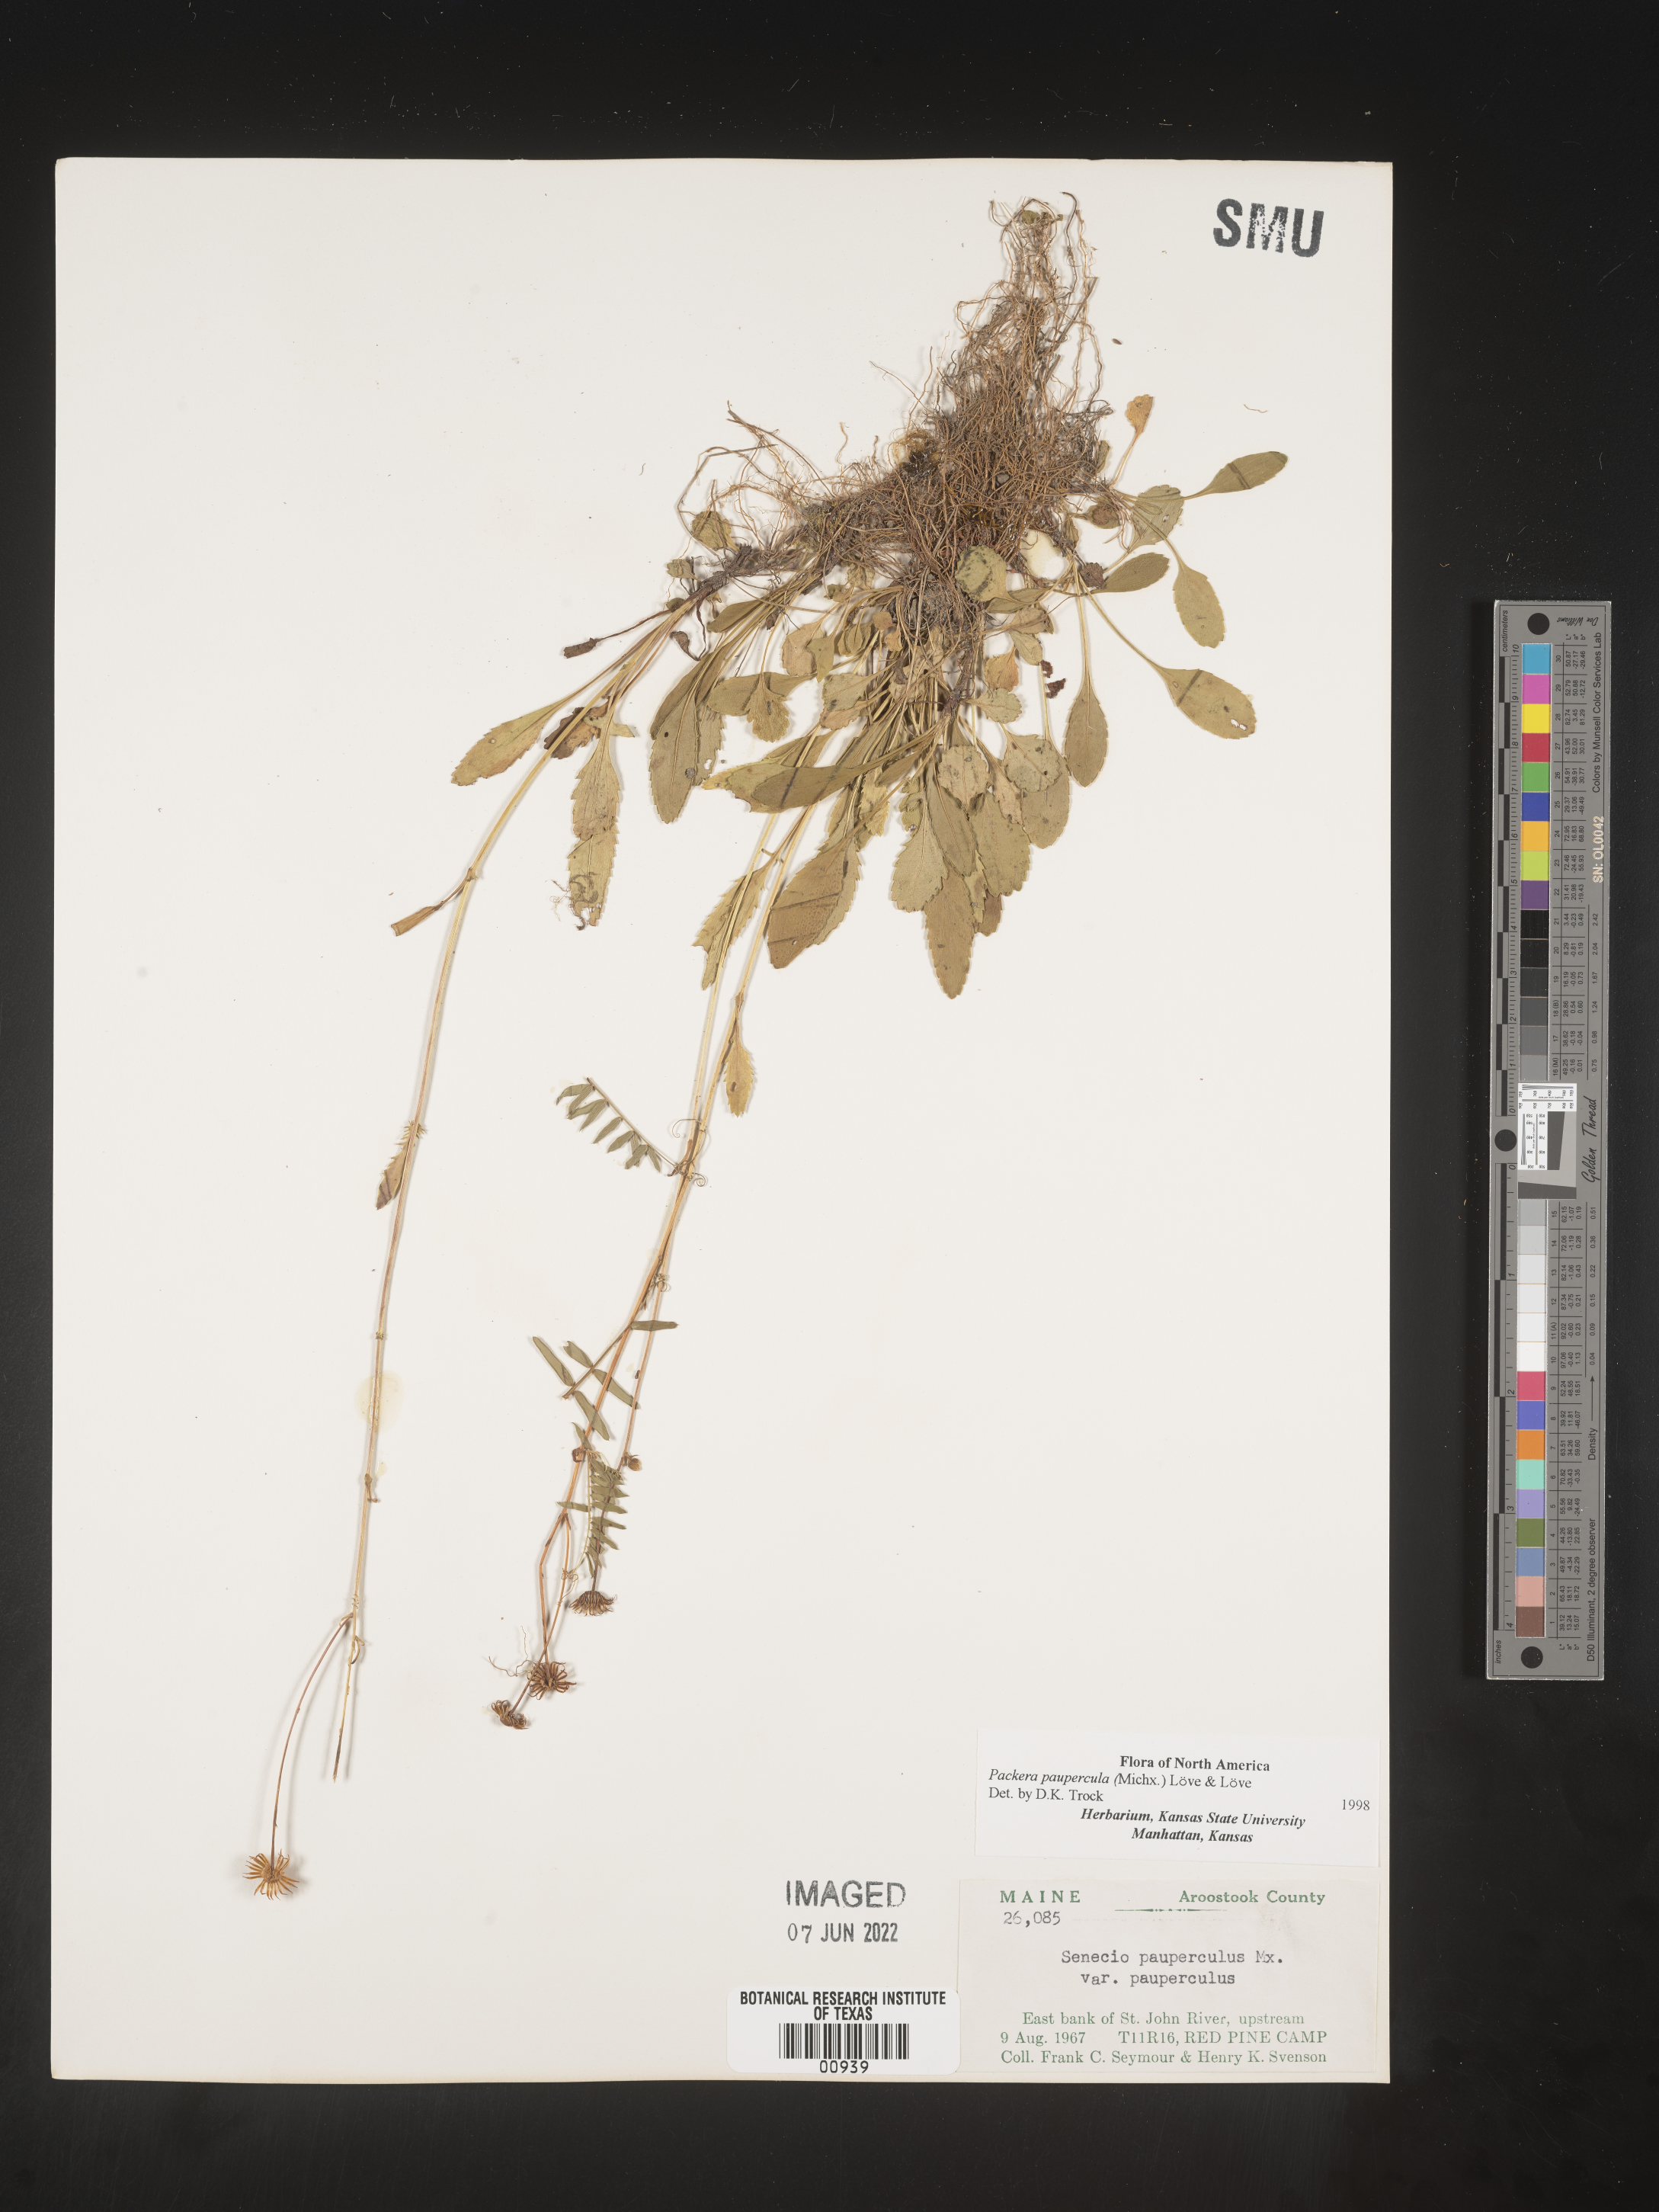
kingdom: Plantae
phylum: Tracheophyta
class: Magnoliopsida
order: Asterales
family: Asteraceae
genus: Packera
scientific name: Packera paupercula
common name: Balsam groundsel
